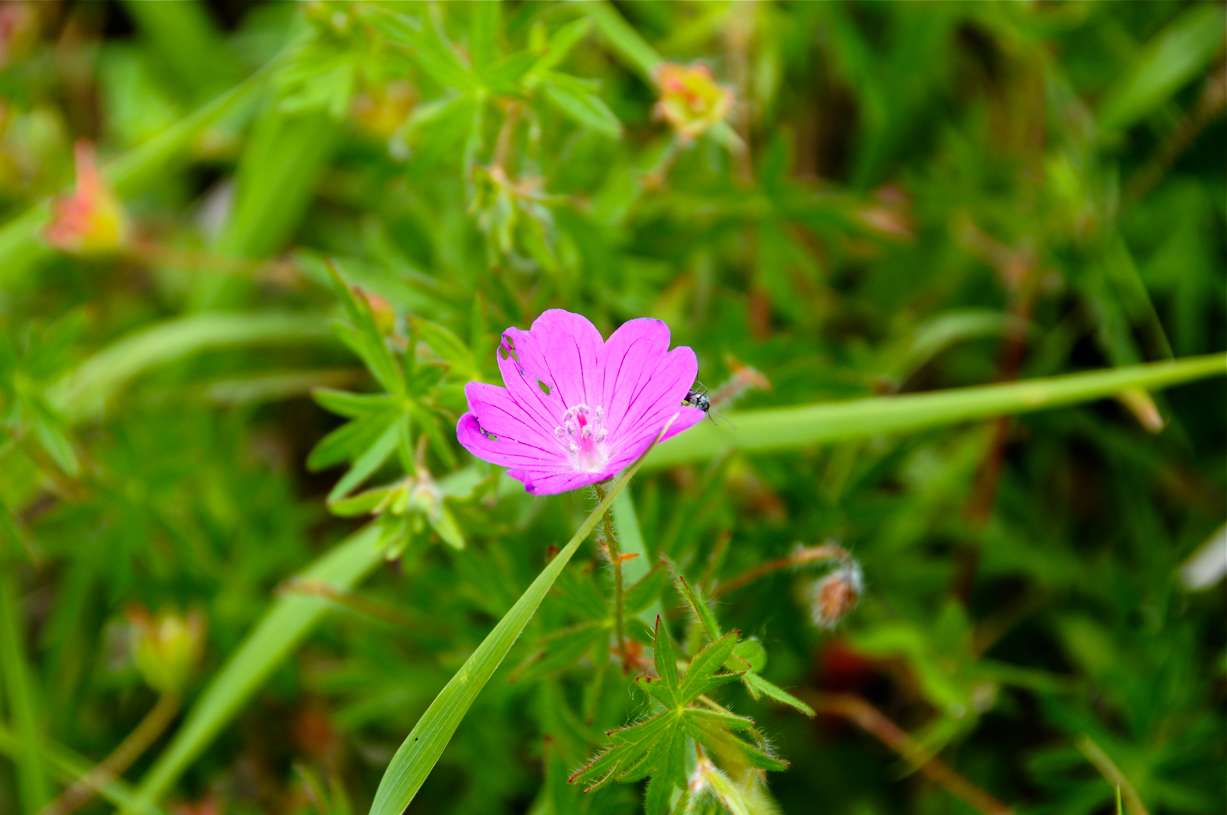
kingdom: Plantae
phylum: Tracheophyta
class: Magnoliopsida
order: Geraniales
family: Geraniaceae
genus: Geranium
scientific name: Geranium sanguineum
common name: Bloody crane's-bill
